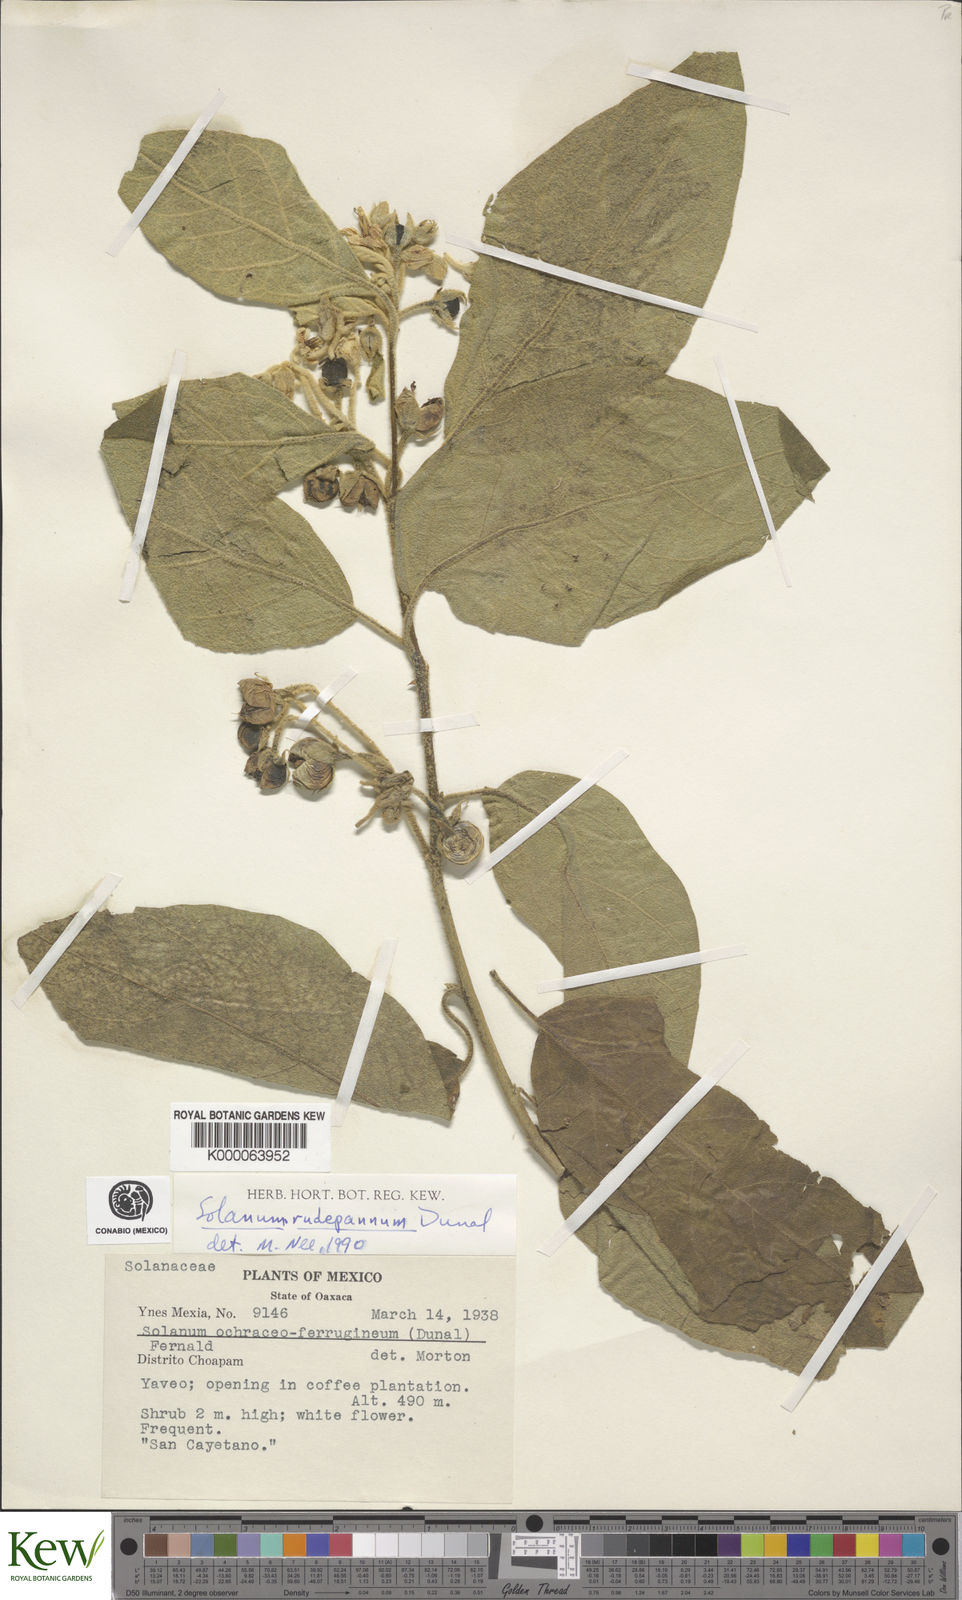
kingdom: Plantae
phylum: Tracheophyta
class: Magnoliopsida
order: Solanales
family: Solanaceae
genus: Solanum
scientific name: Solanum rude-pannum
